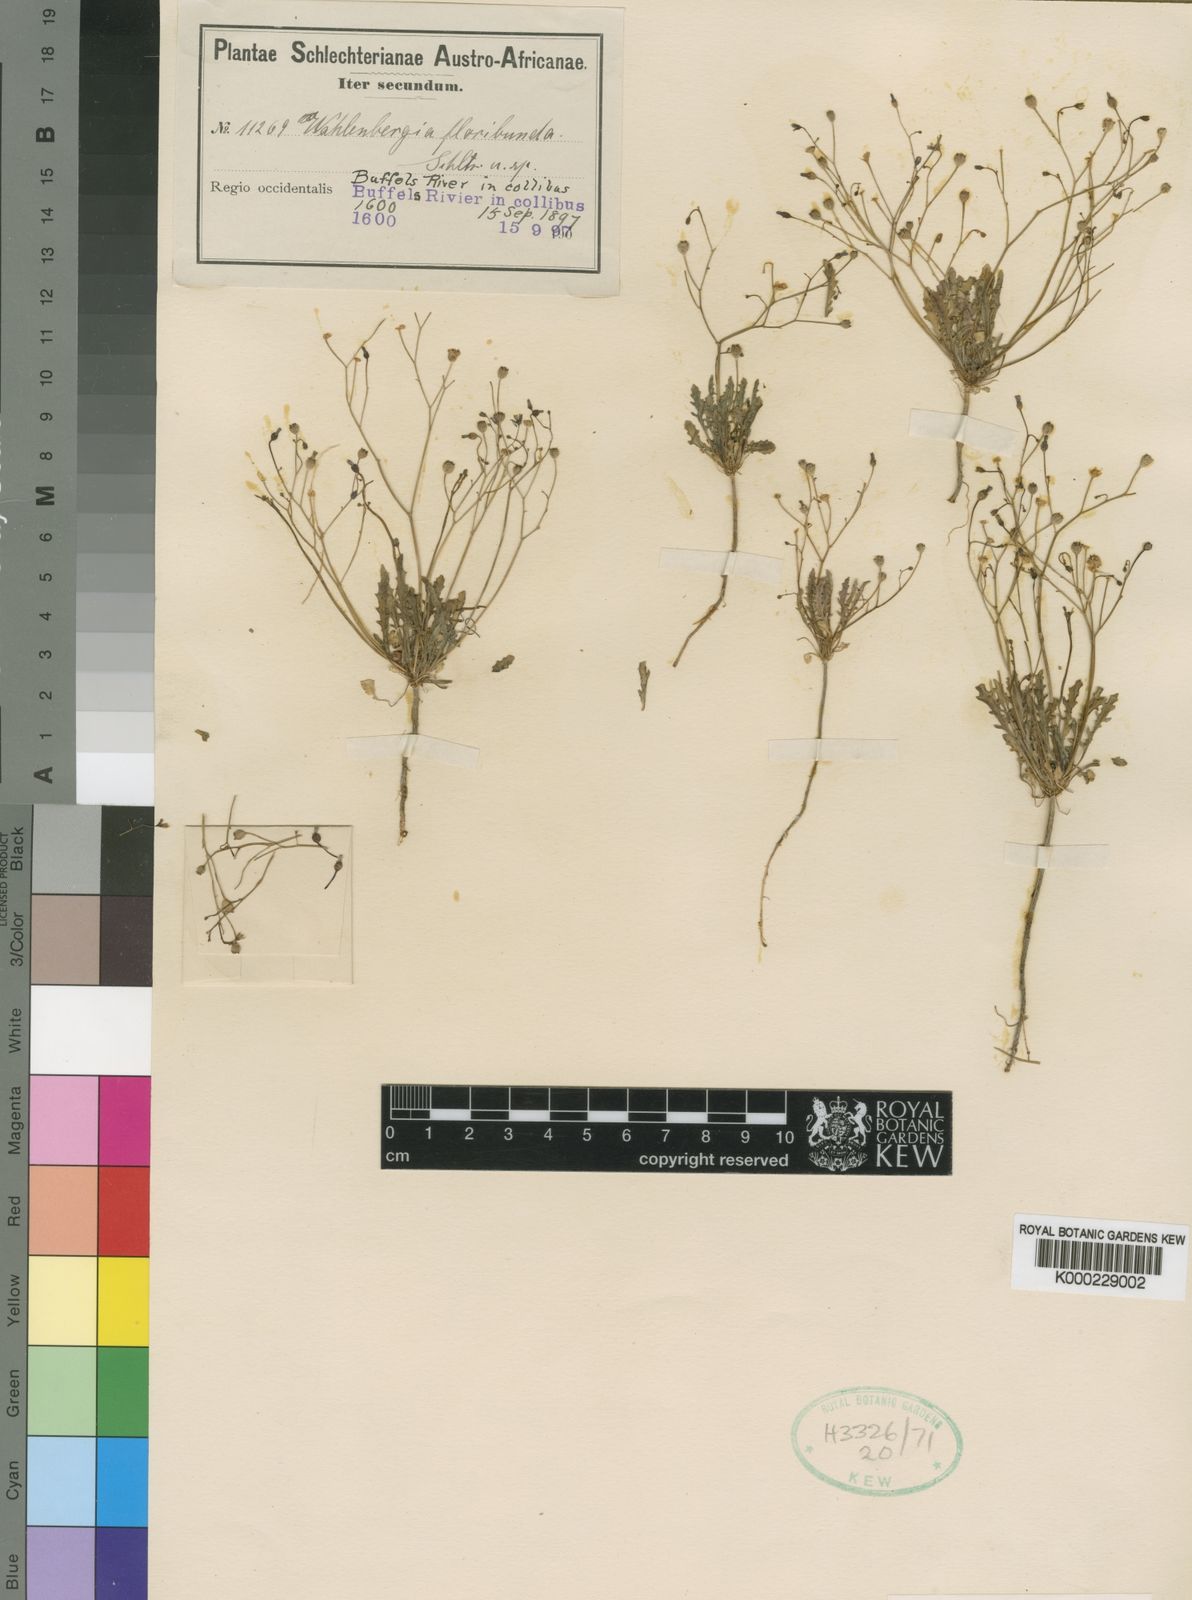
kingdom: Plantae
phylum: Tracheophyta
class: Magnoliopsida
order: Asterales
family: Campanulaceae
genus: Wahlenbergia
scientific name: Wahlenbergia floribunda
